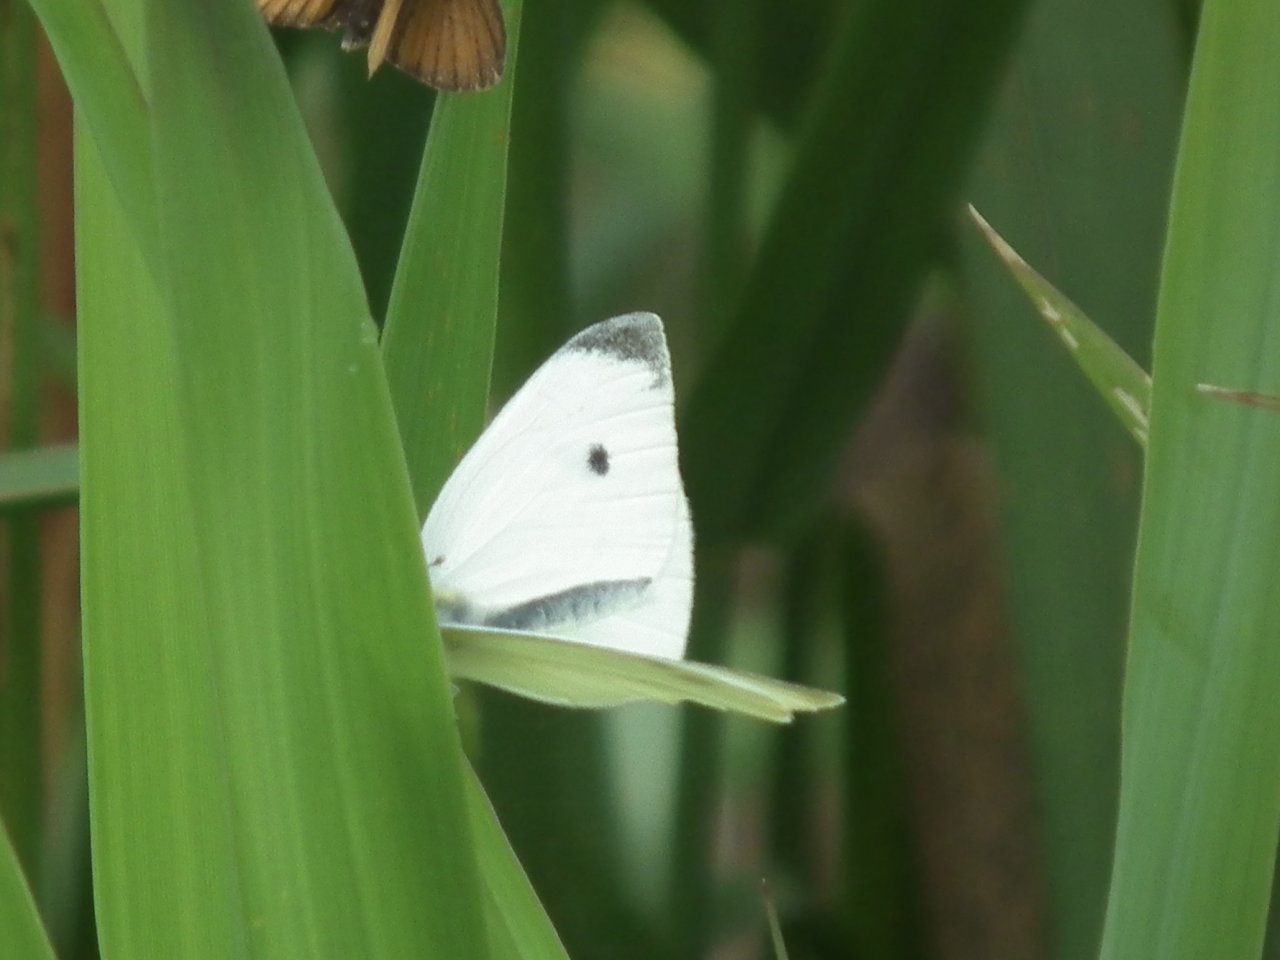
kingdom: Animalia
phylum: Arthropoda
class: Insecta
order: Lepidoptera
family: Pieridae
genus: Pieris
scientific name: Pieris rapae
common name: Cabbage White
